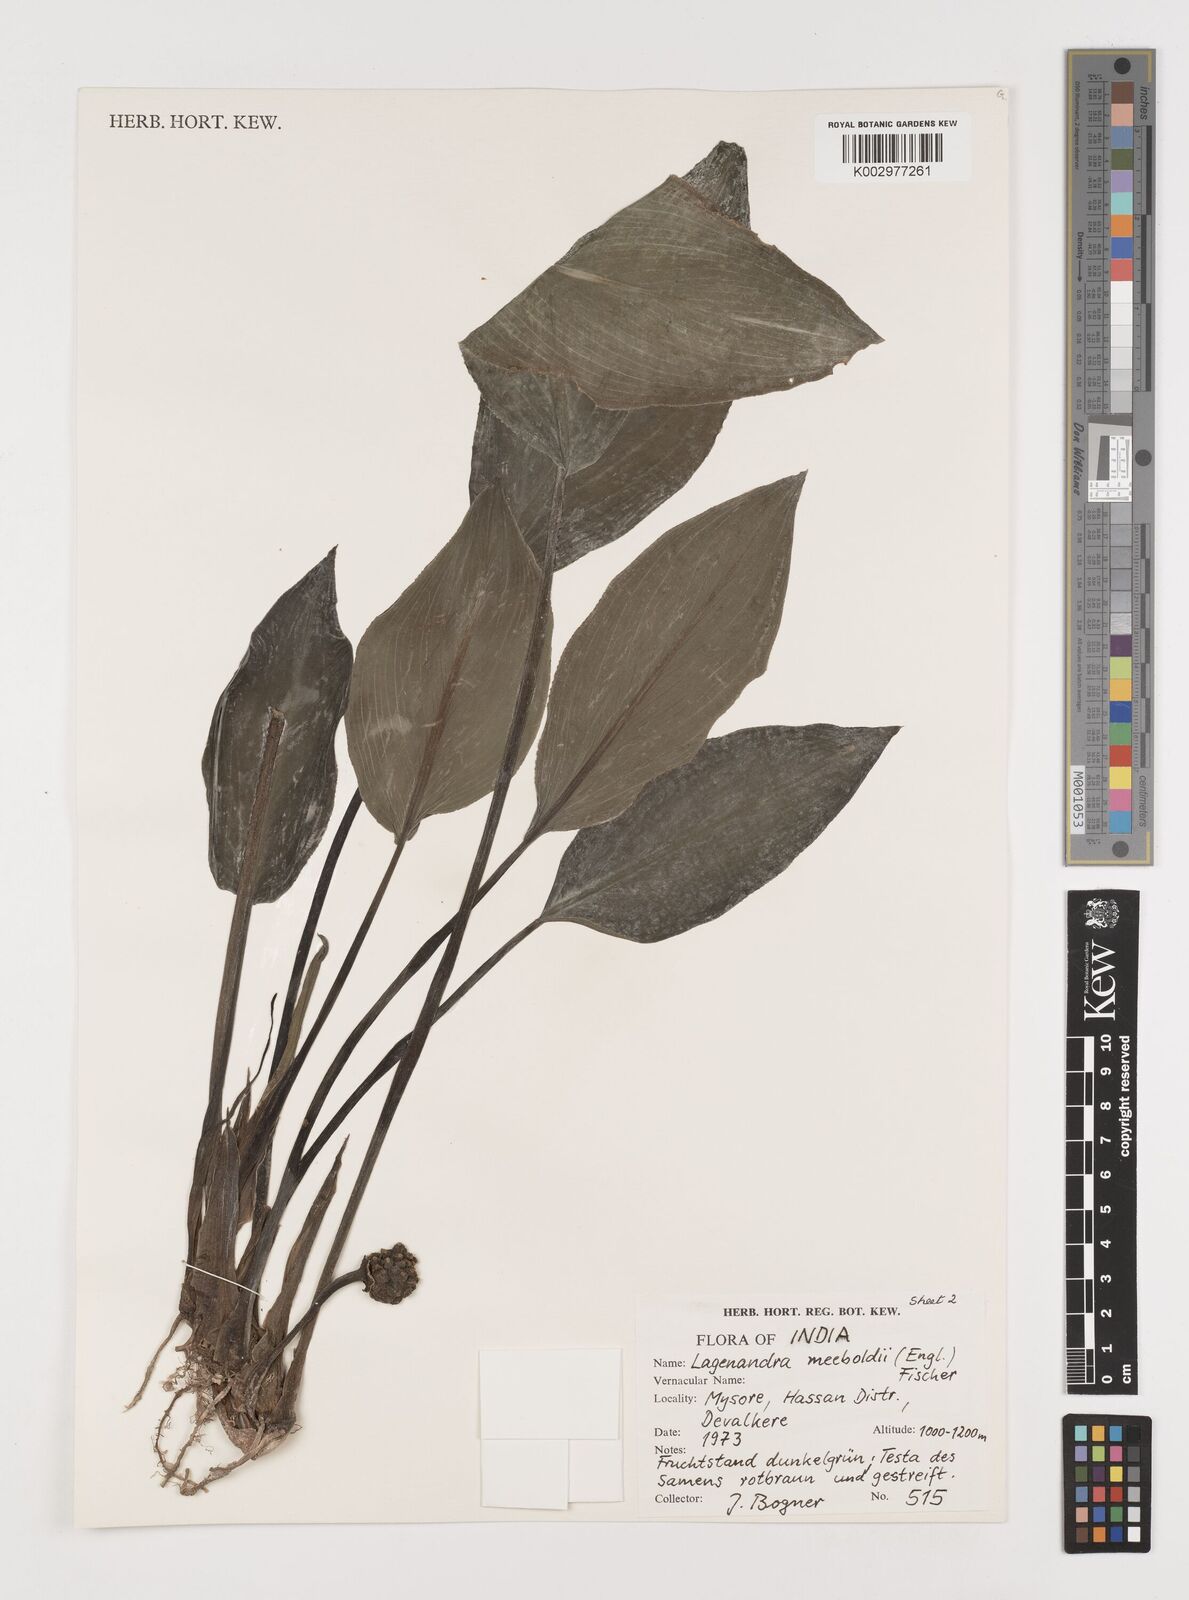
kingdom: Plantae
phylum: Tracheophyta
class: Liliopsida
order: Alismatales
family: Araceae
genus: Lagenandra
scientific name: Lagenandra meeboldii
